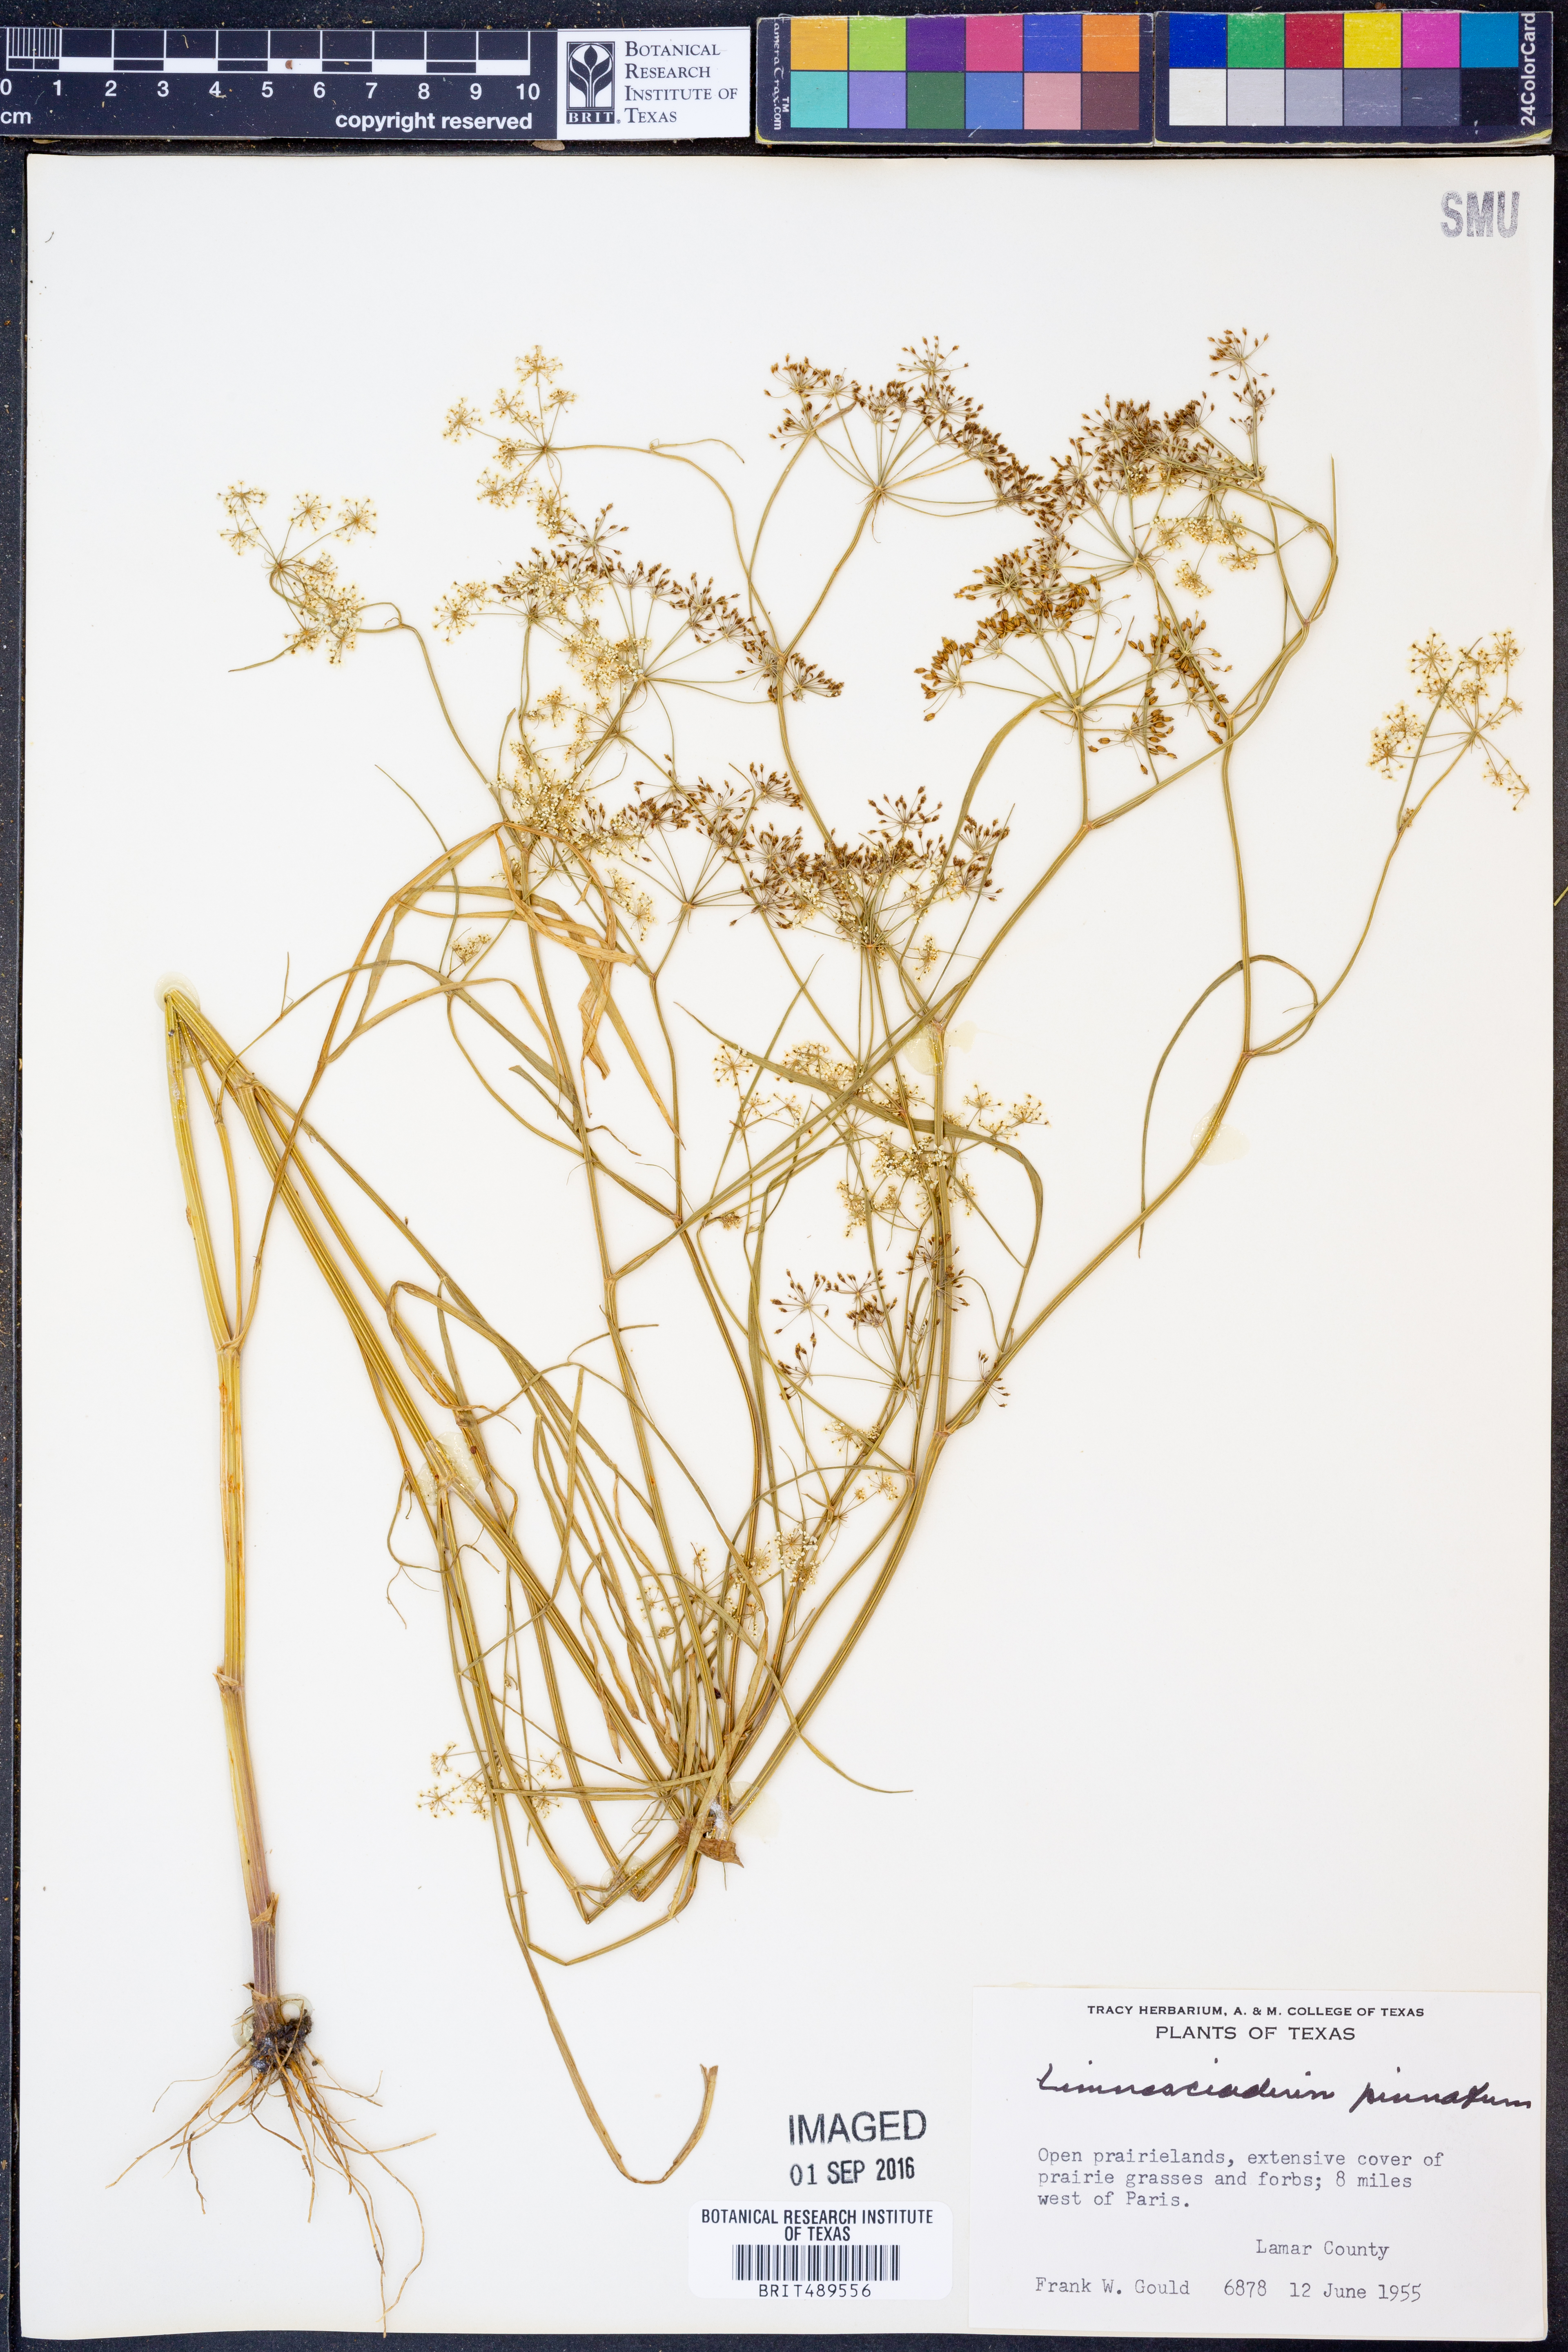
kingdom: Plantae
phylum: Tracheophyta
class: Magnoliopsida
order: Apiales
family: Apiaceae
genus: Limnosciadium
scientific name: Limnosciadium pinnatum
